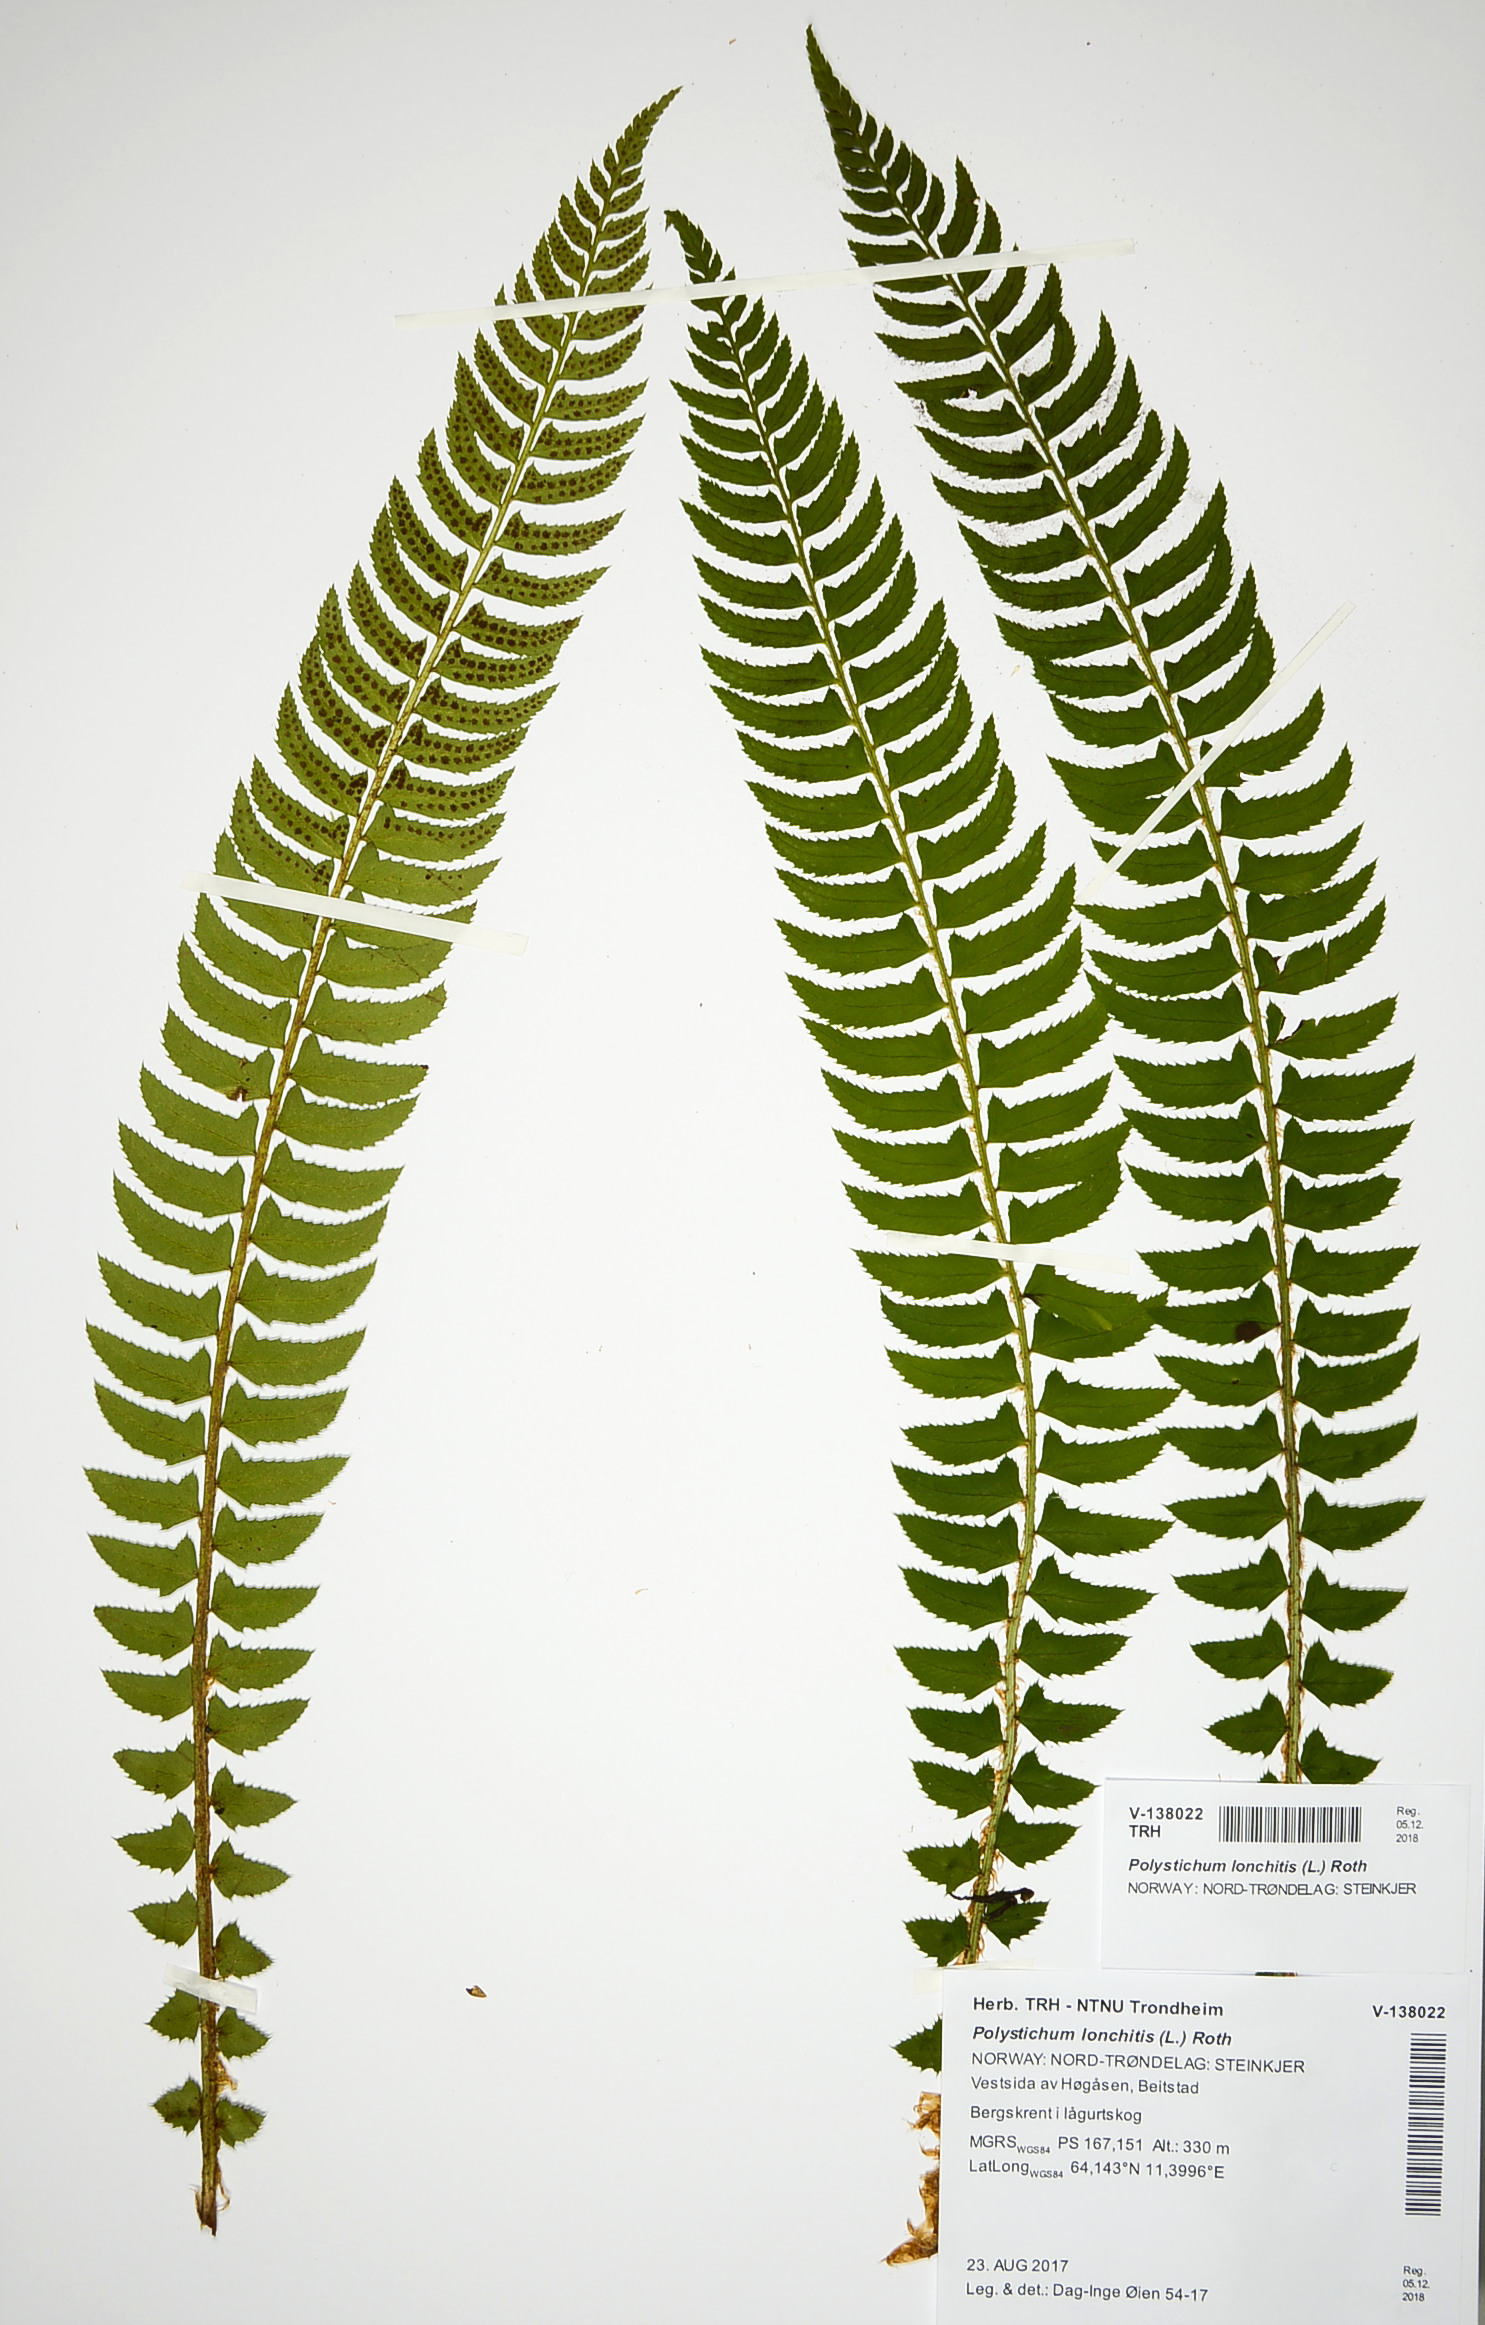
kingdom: Plantae
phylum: Tracheophyta
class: Polypodiopsida
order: Polypodiales
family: Dryopteridaceae
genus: Polystichum
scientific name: Polystichum lonchitis
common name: Holly fern
